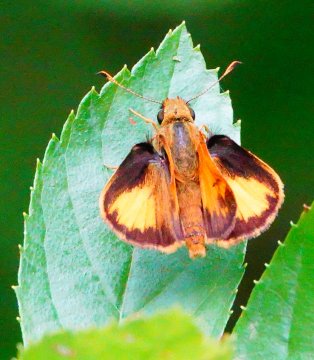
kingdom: Animalia
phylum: Arthropoda
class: Insecta
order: Lepidoptera
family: Hesperiidae
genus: Lon
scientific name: Lon zabulon
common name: Zabulon Skipper
